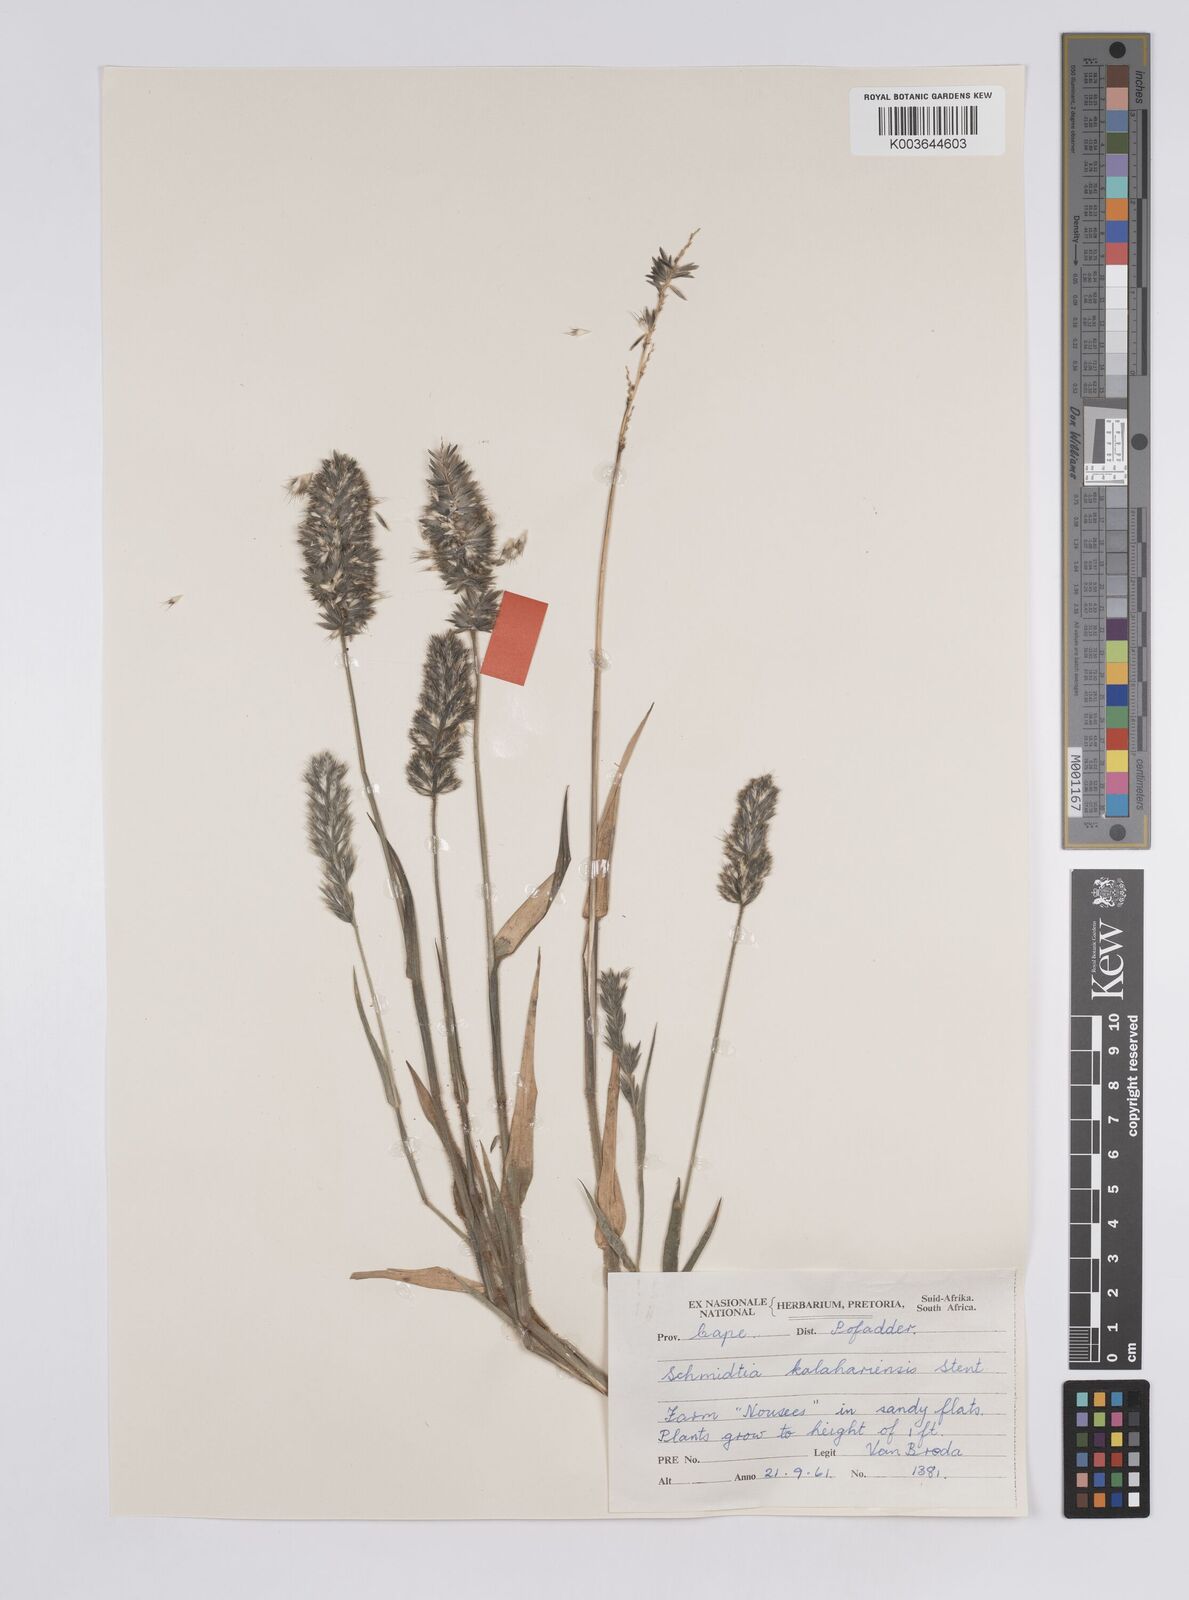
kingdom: Plantae
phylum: Tracheophyta
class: Liliopsida
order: Poales
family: Poaceae
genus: Schmidtia
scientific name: Schmidtia kalahariensis
